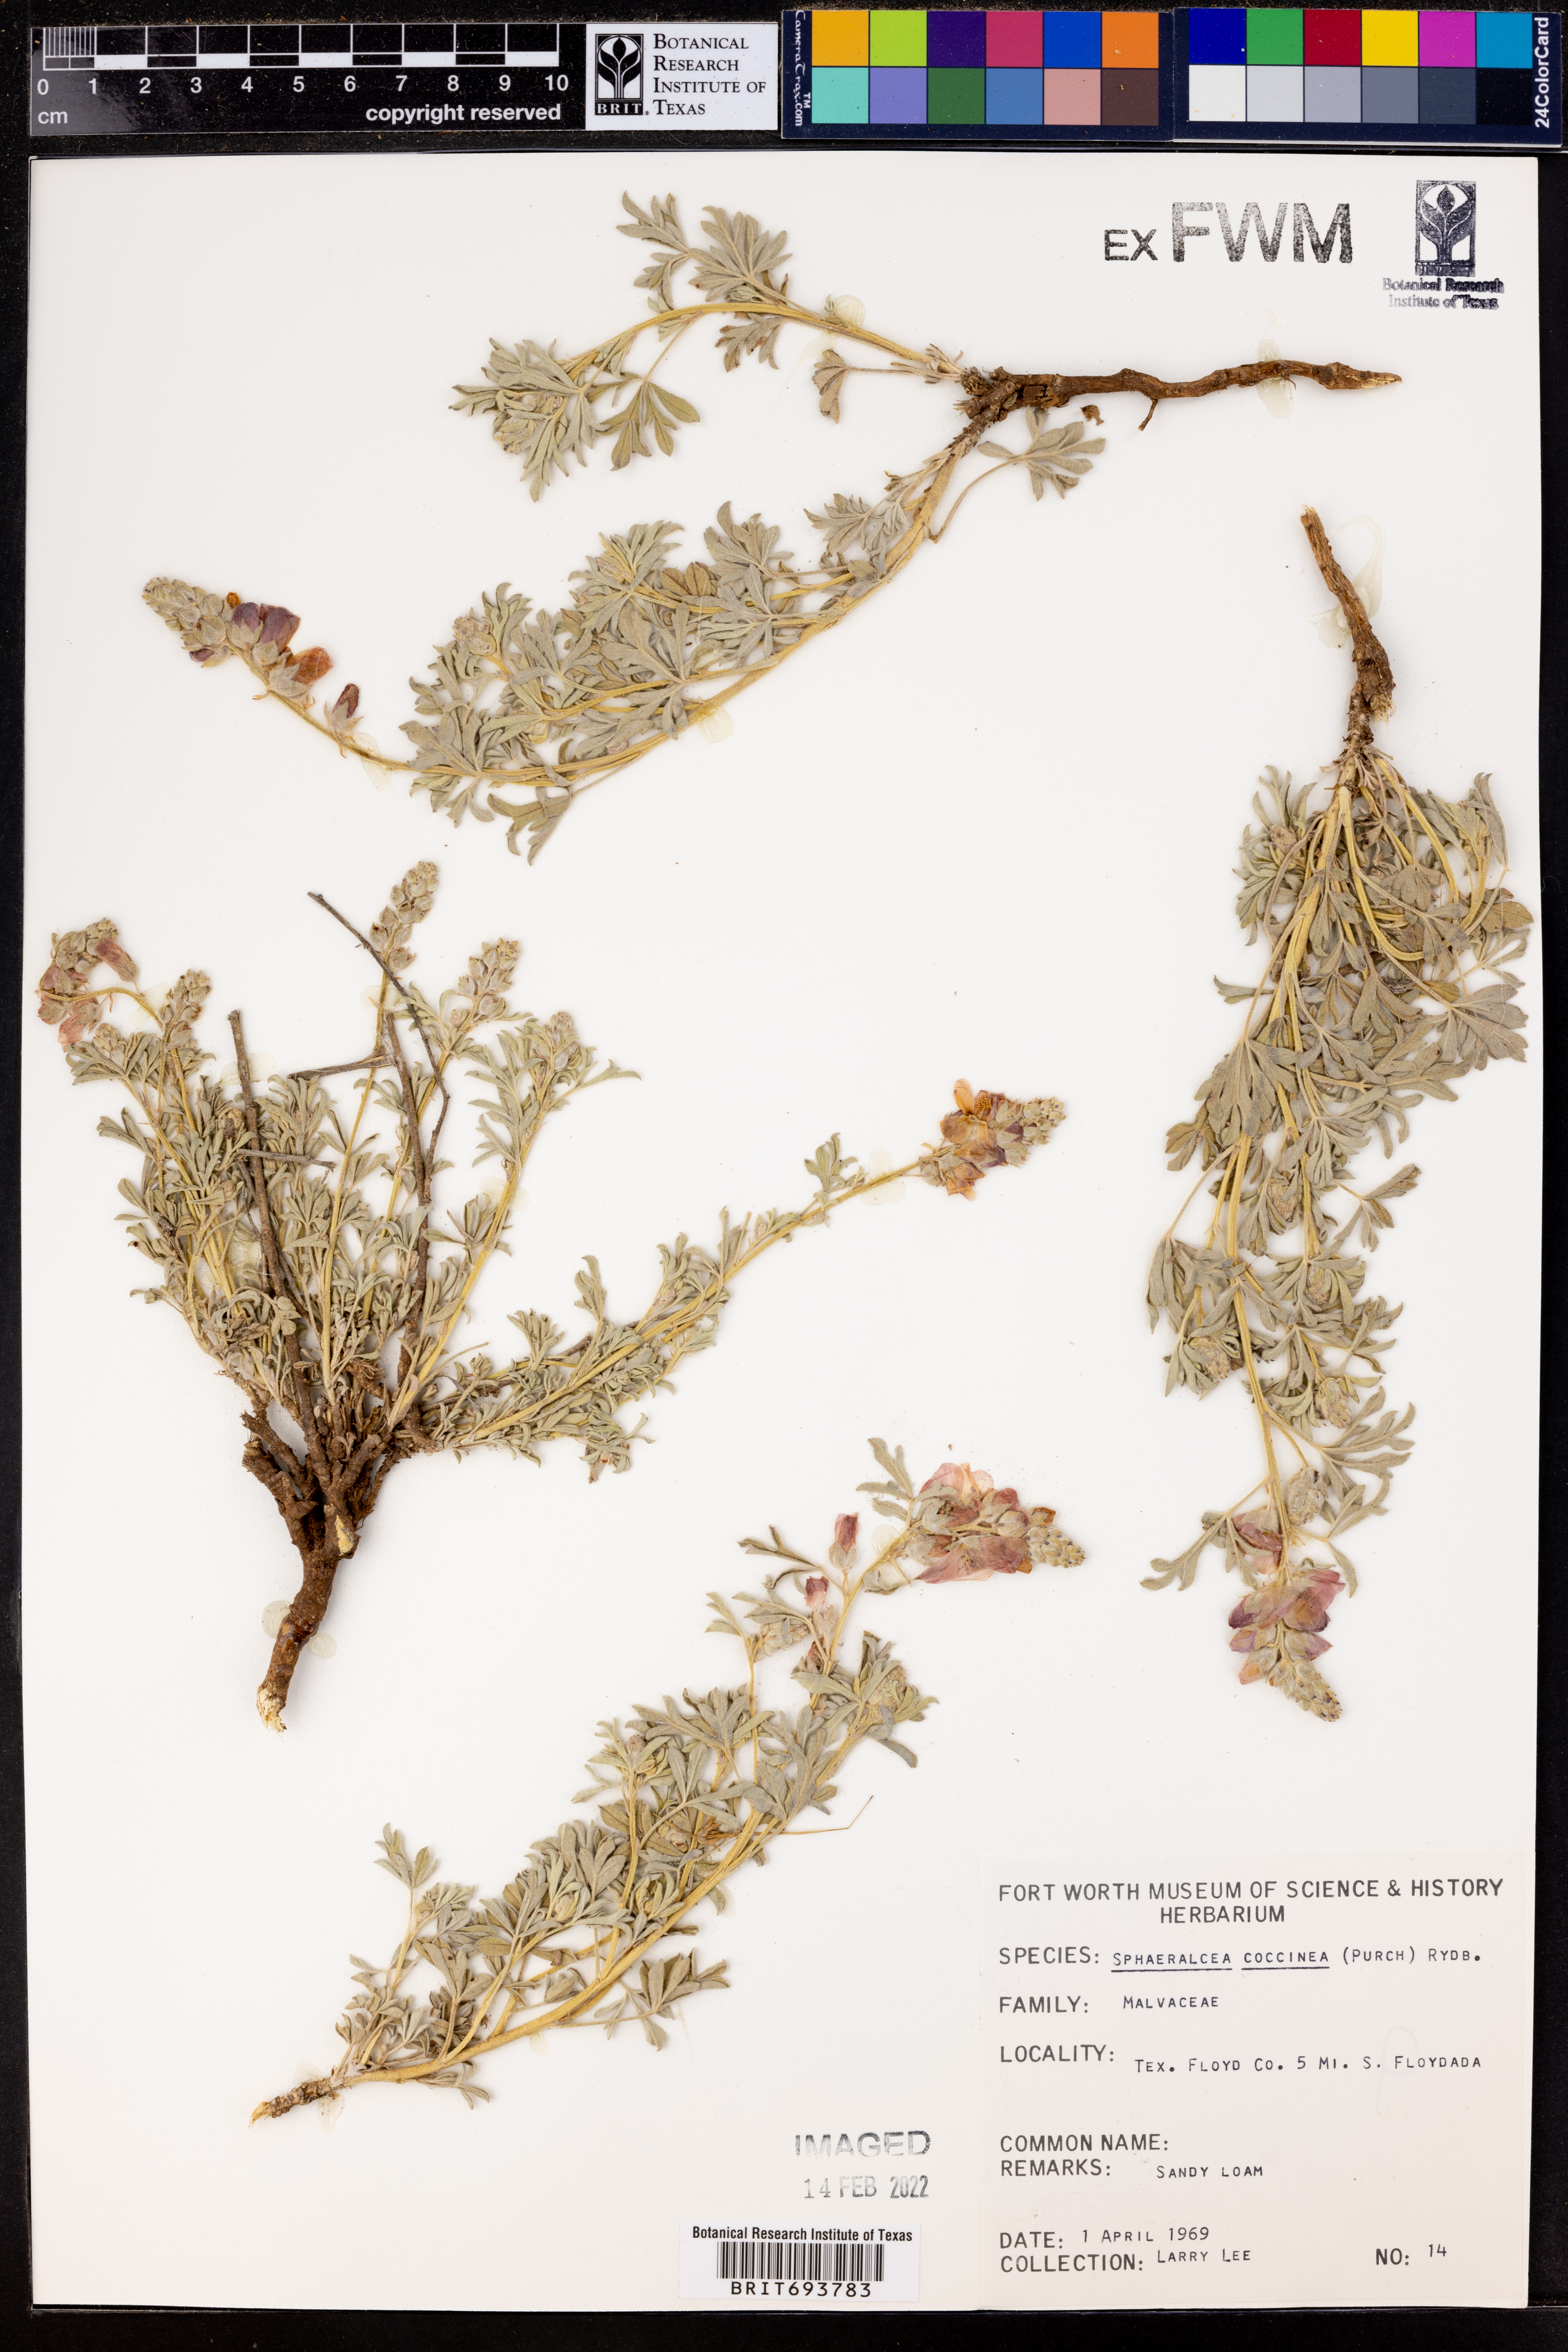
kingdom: Plantae
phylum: Tracheophyta
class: Magnoliopsida
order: Malvales
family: Malvaceae
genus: Sphaeralcea
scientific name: Sphaeralcea coccinea
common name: Moss-rose
